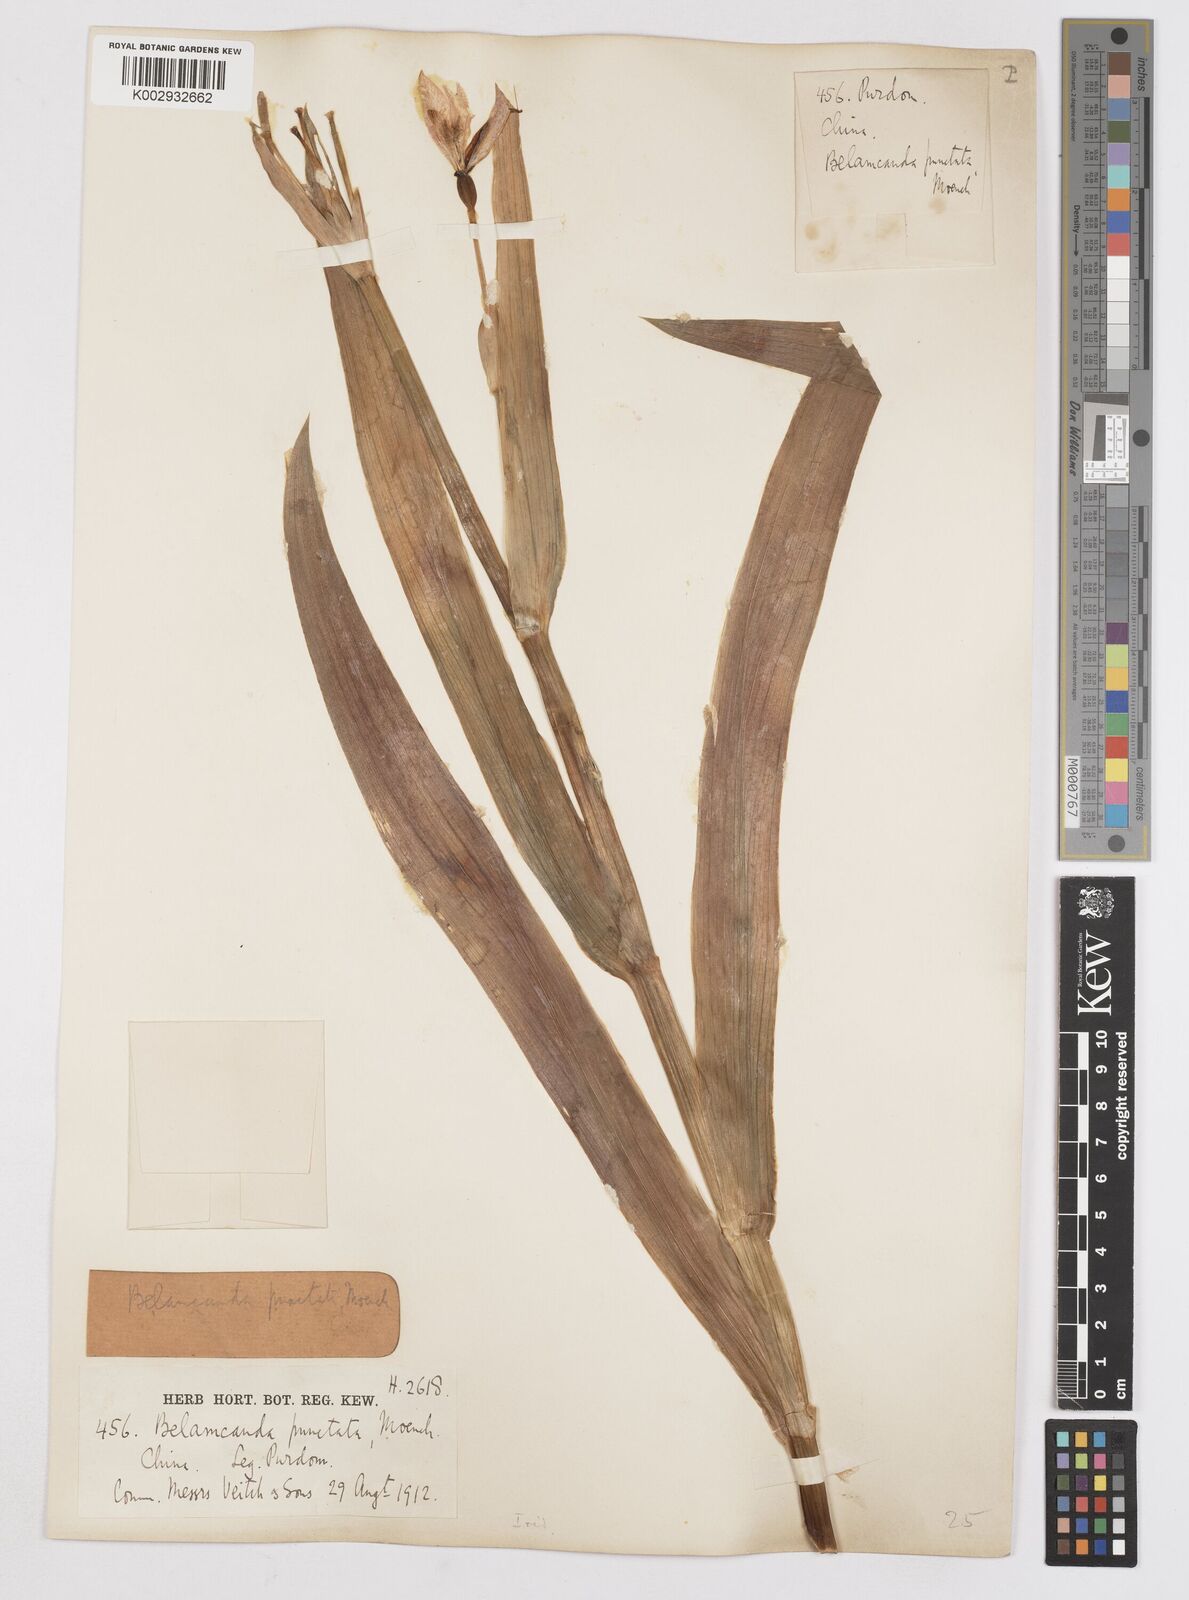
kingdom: Plantae
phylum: Tracheophyta
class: Liliopsida
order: Asparagales
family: Iridaceae
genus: Iris
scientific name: Iris
